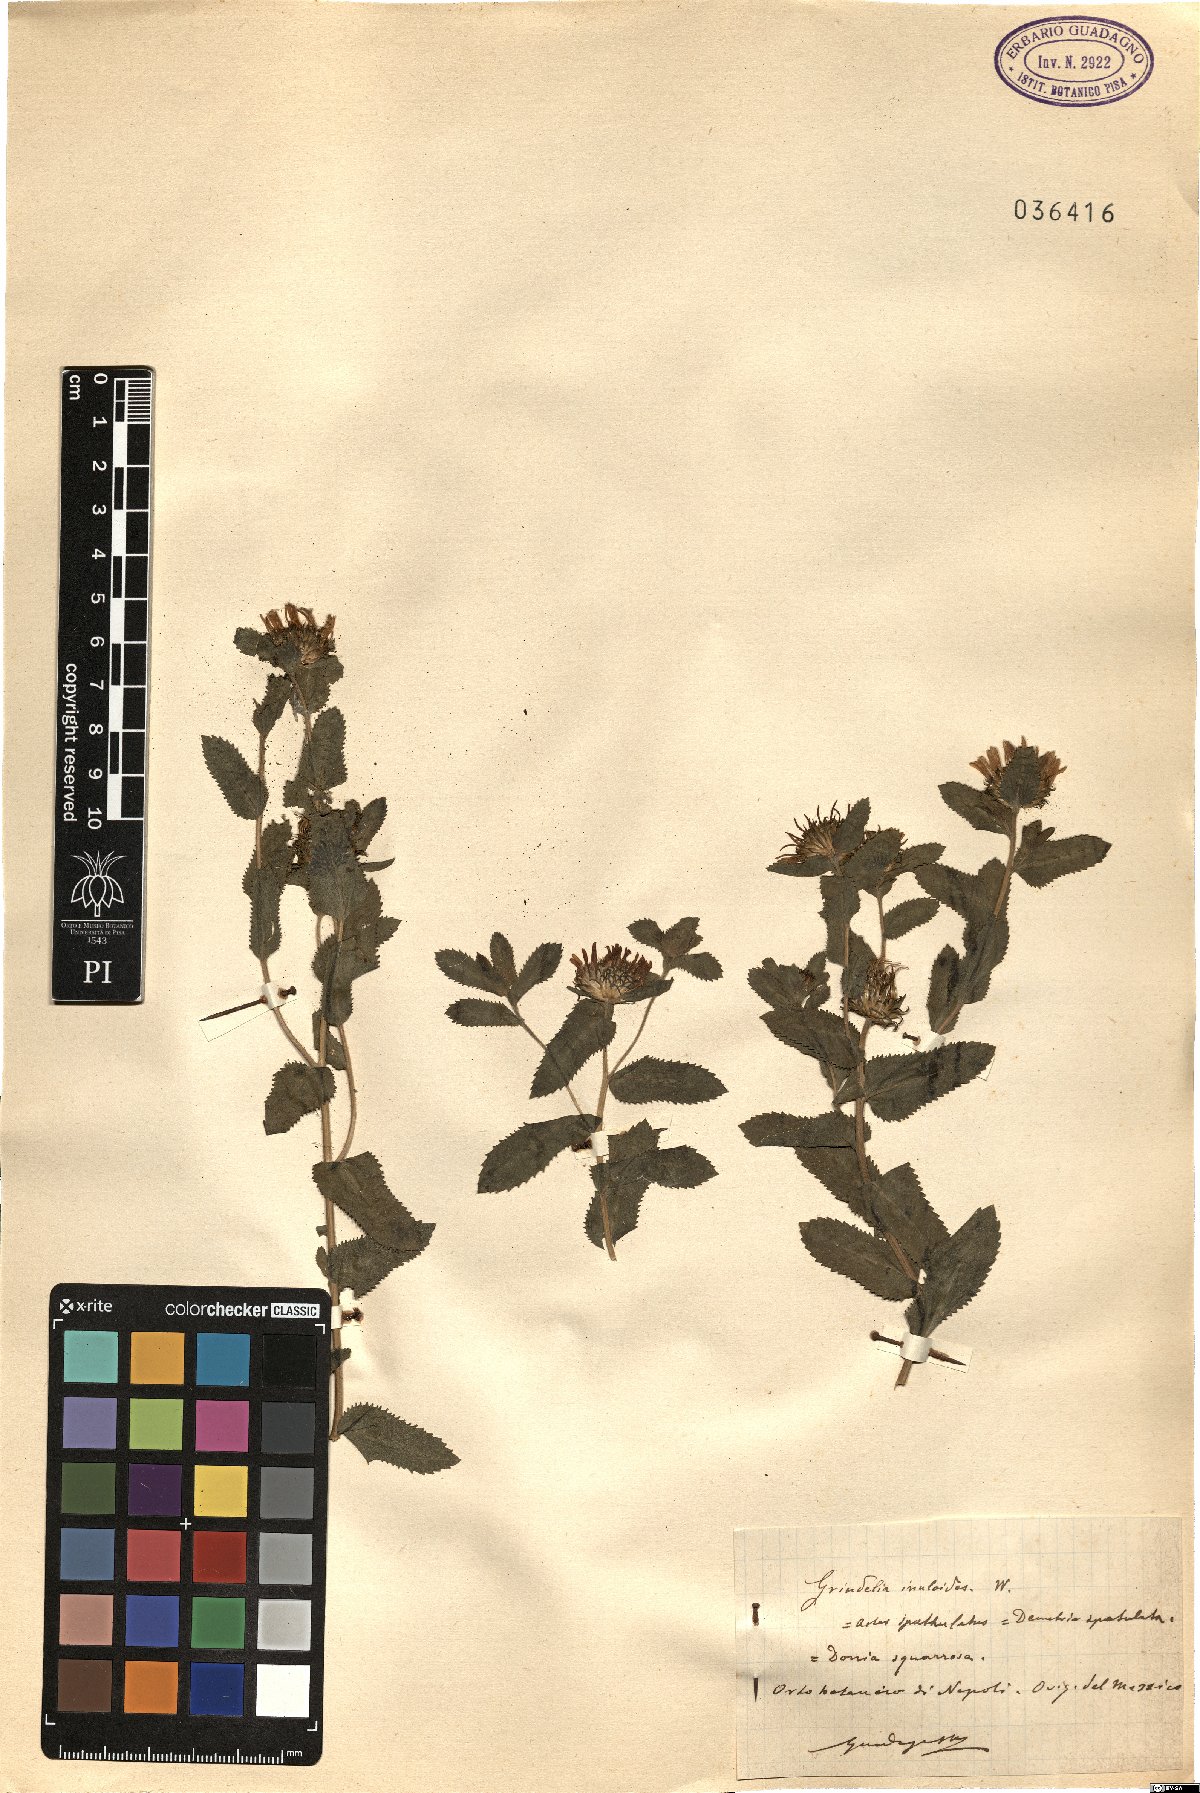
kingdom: Plantae
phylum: Tracheophyta
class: Magnoliopsida
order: Asterales
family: Asteraceae
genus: Grindelia
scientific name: Grindelia squarrosa
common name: Curly-cup gumweed
